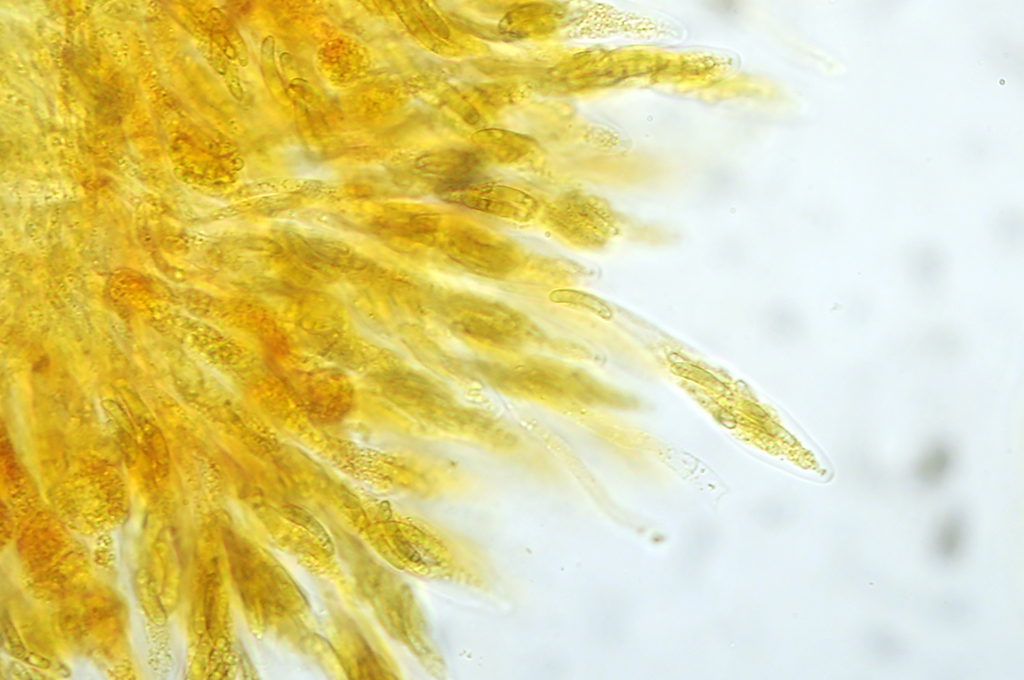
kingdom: Fungi
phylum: Ascomycota
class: Sordariomycetes
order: Xylariales
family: Diatrypaceae
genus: Cryptosphaeria
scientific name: Cryptosphaeria eunomia
